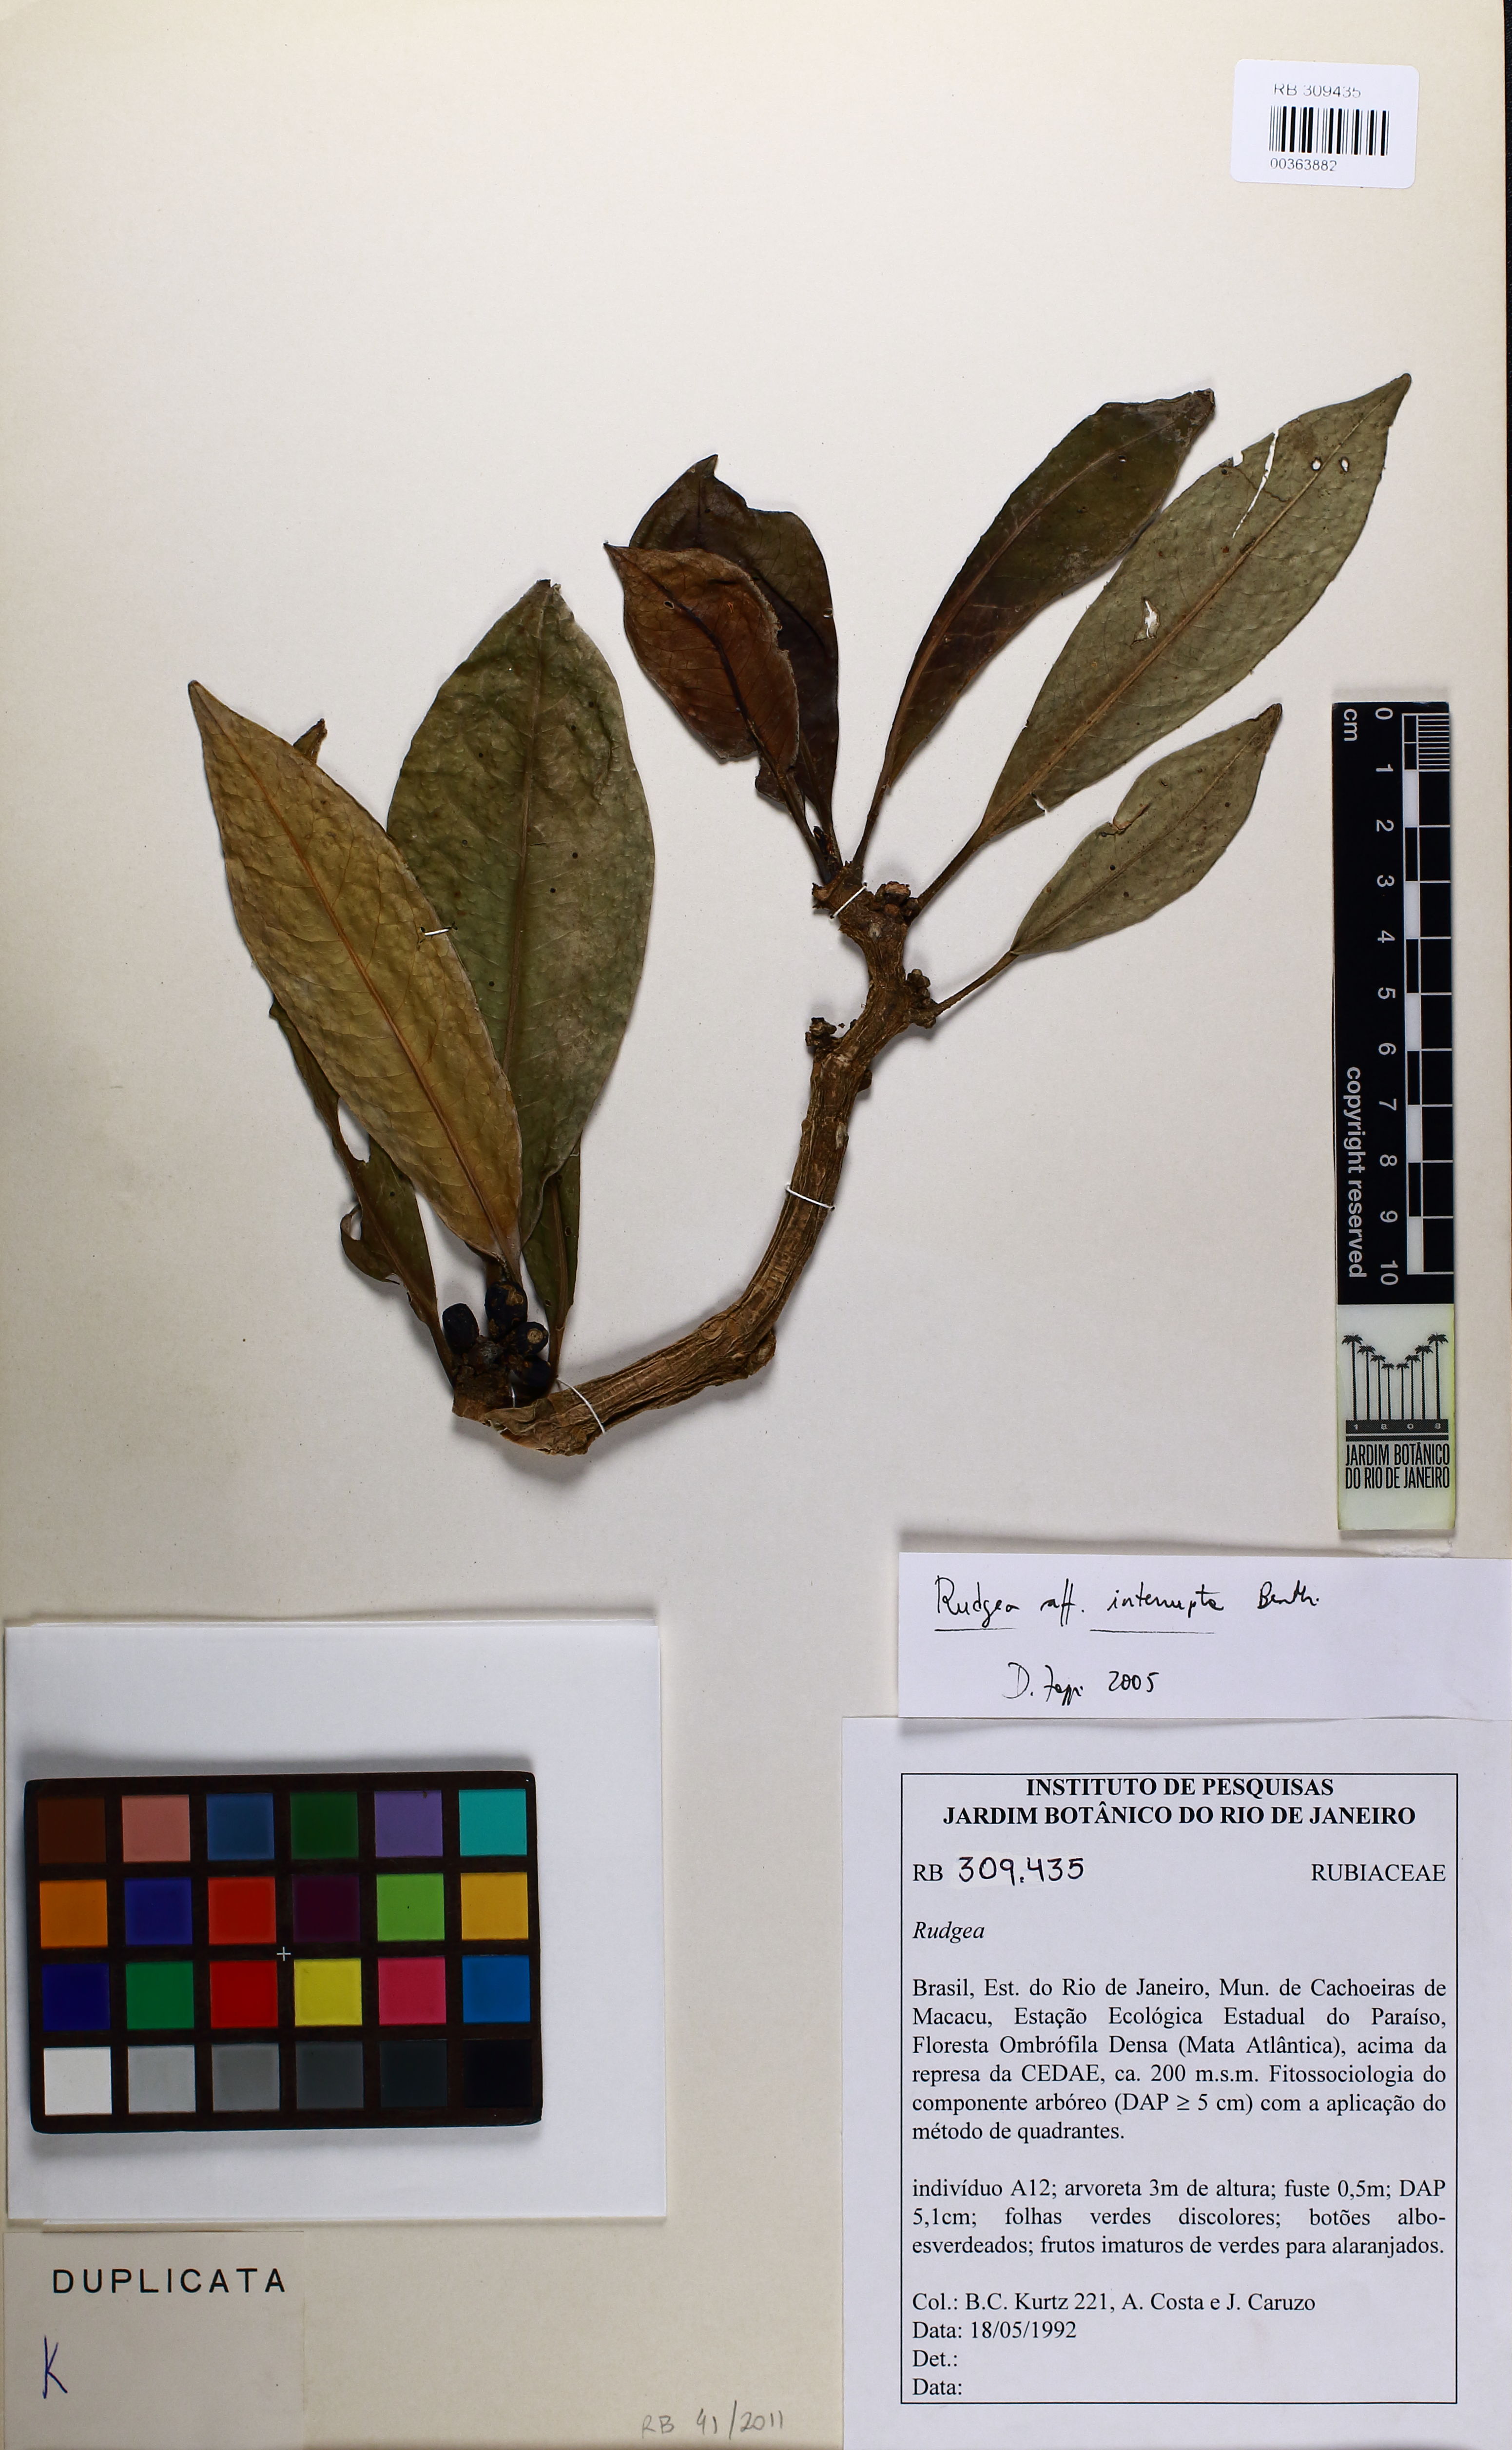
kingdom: Plantae
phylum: Tracheophyta
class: Magnoliopsida
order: Gentianales
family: Rubiaceae
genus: Rudgea
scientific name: Rudgea interrupta
